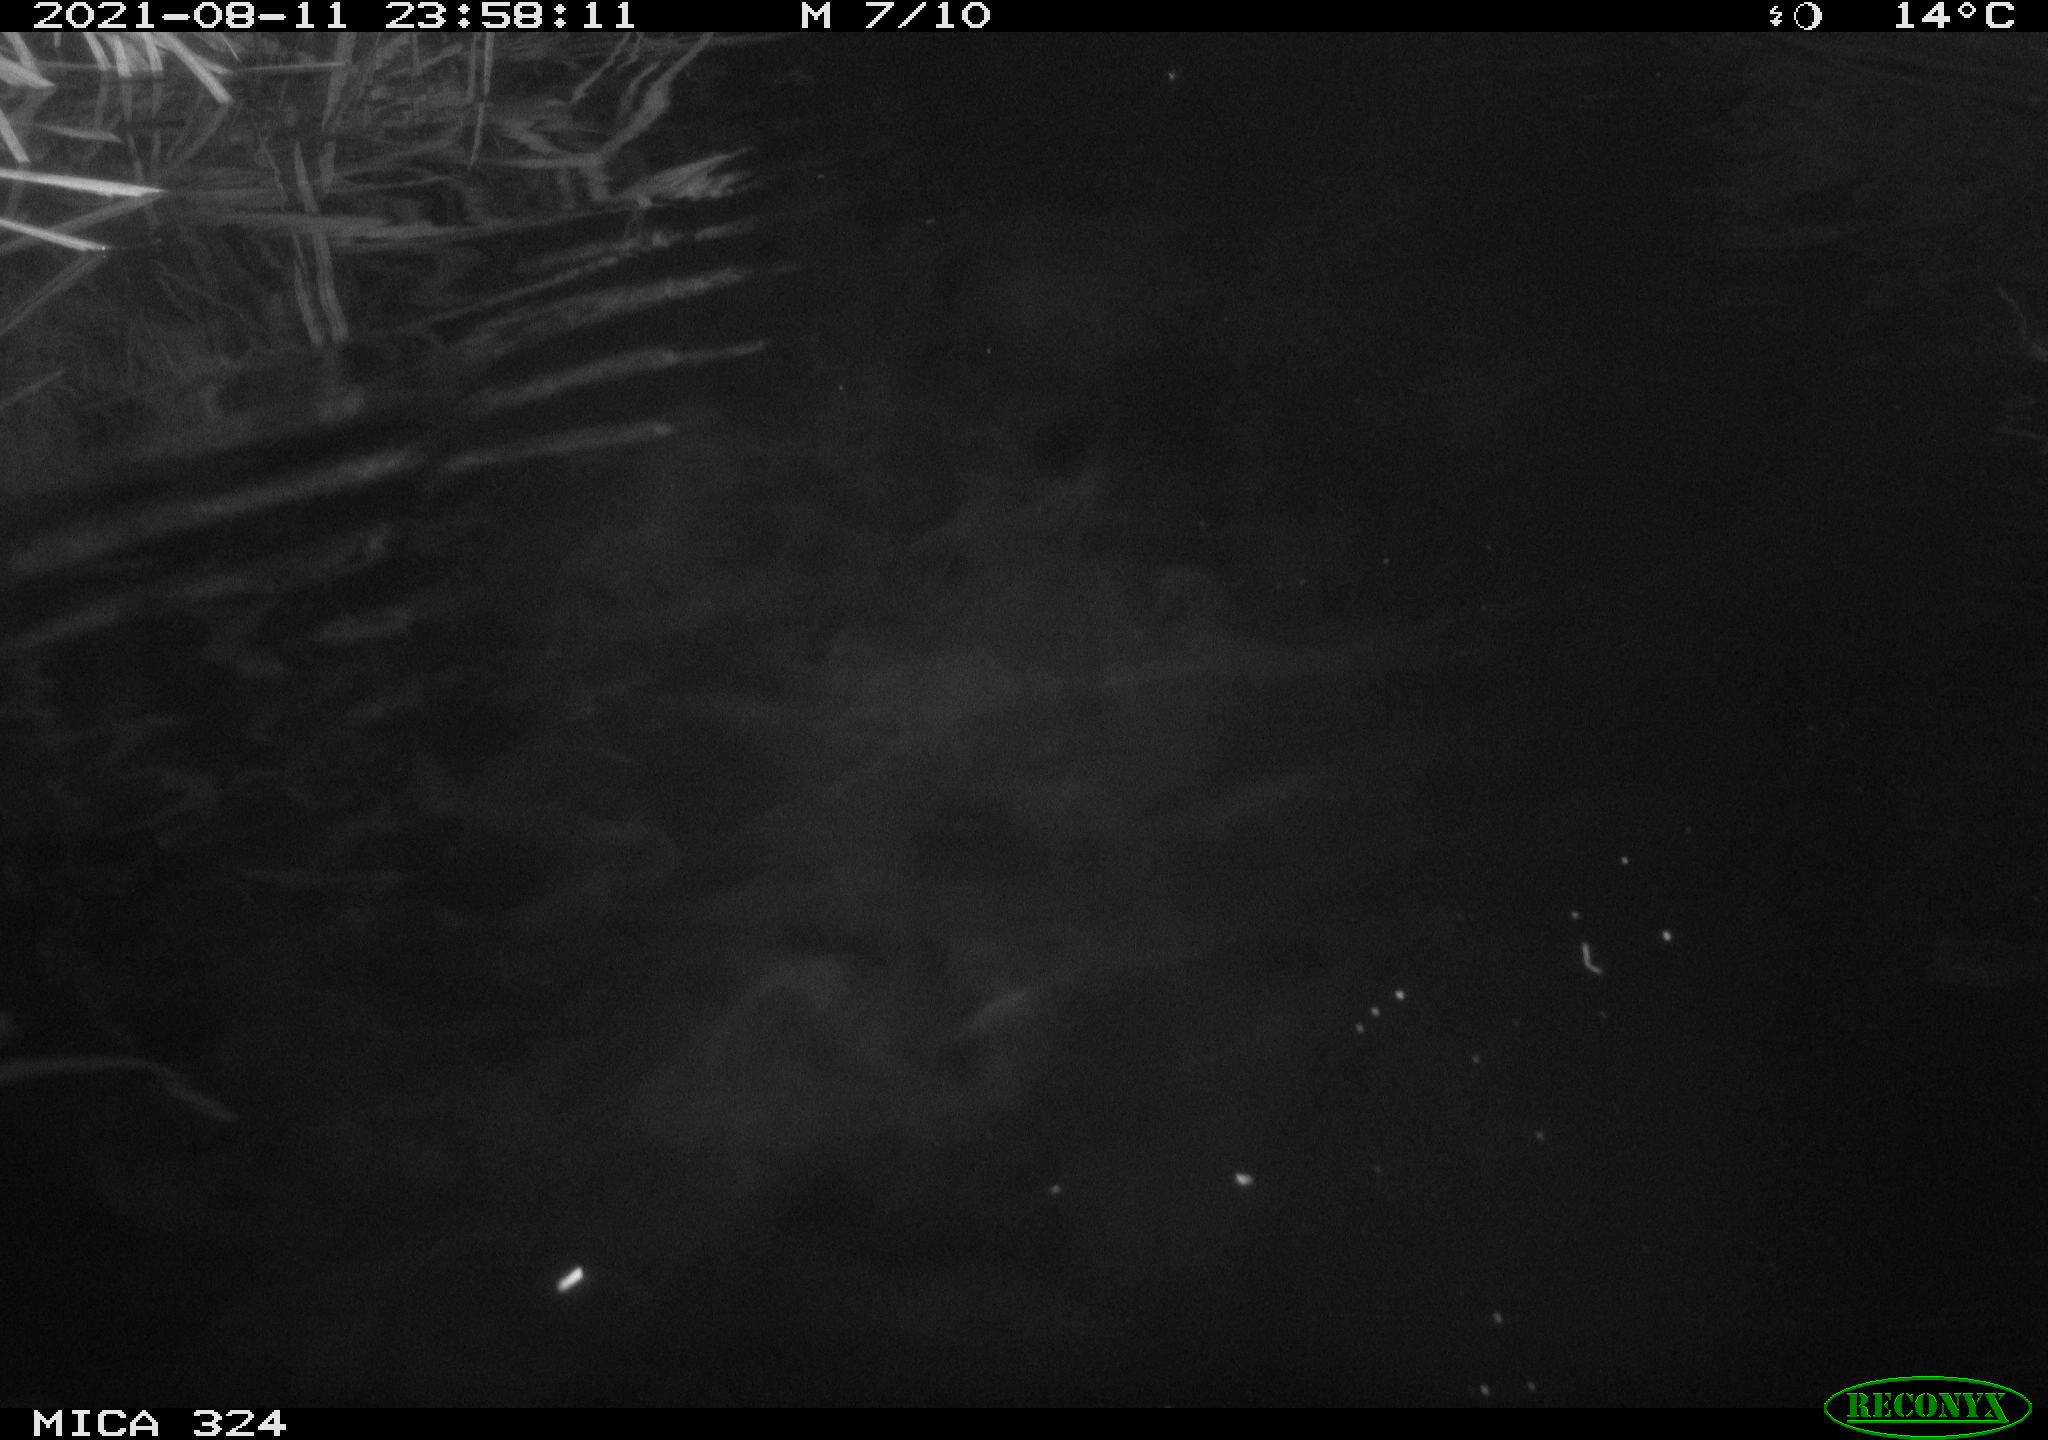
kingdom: Animalia
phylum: Chordata
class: Mammalia
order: Rodentia
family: Cricetidae
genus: Ondatra
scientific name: Ondatra zibethicus
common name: Muskrat
